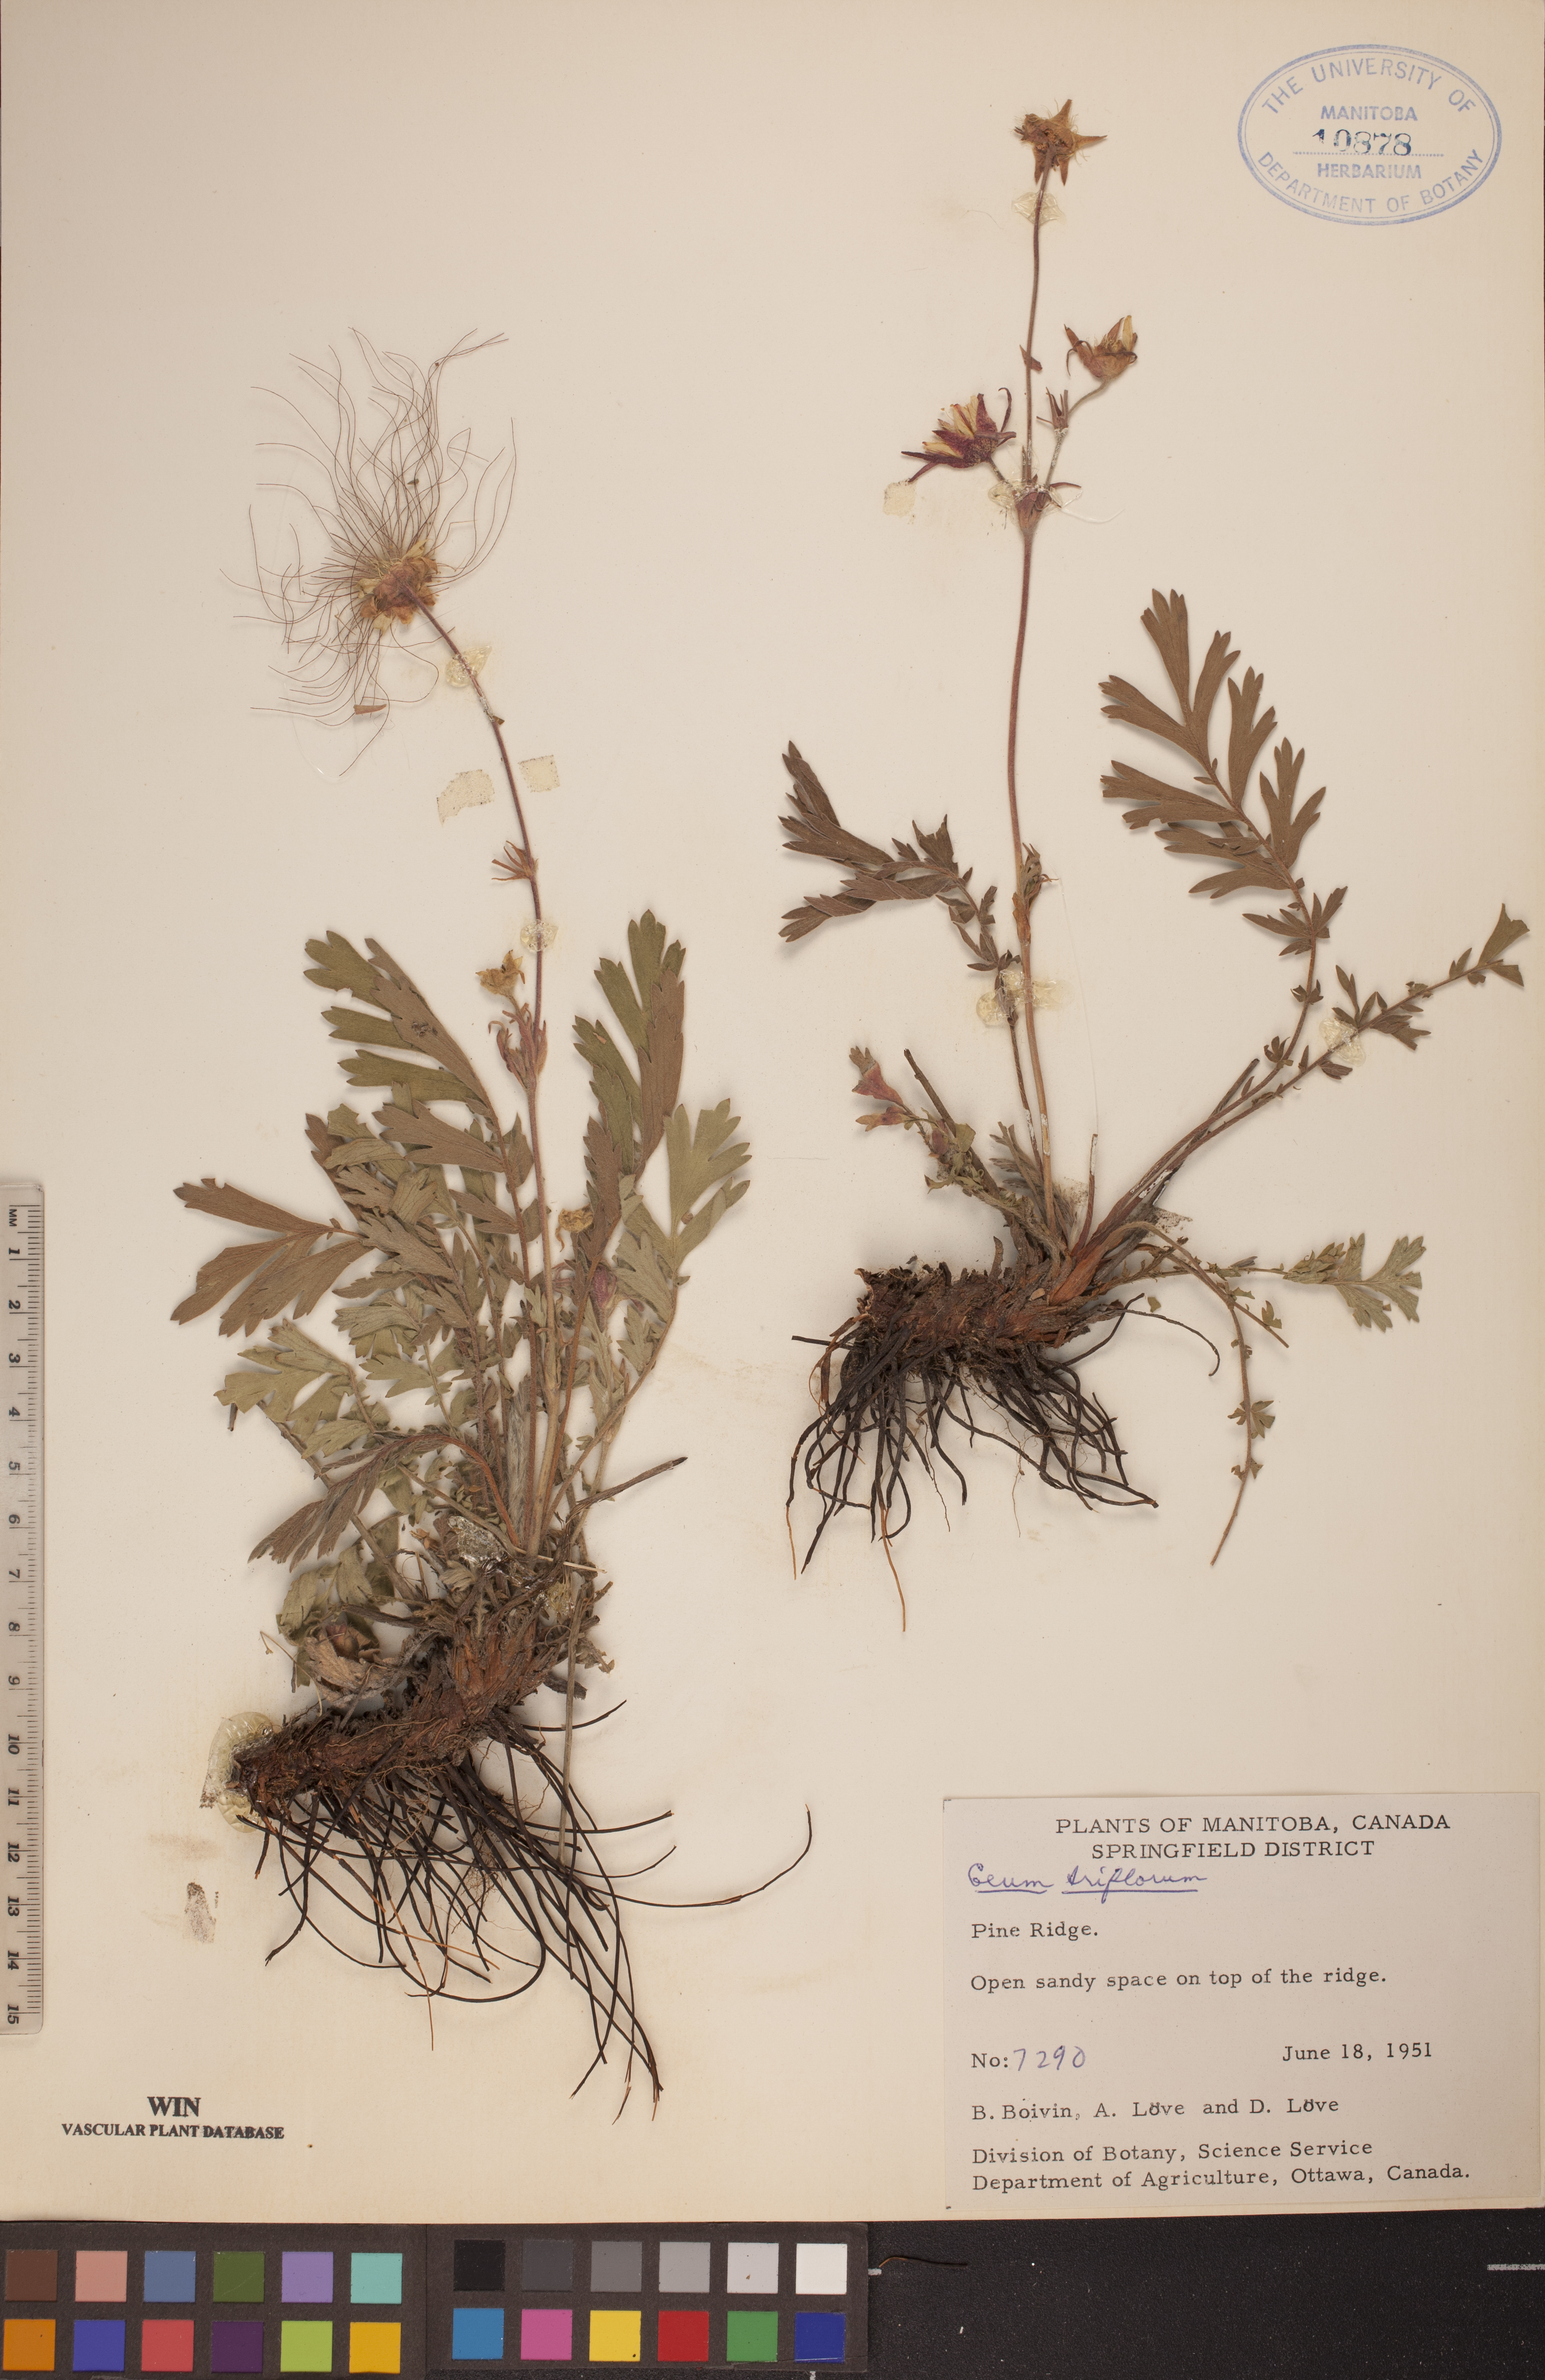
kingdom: Plantae
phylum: Tracheophyta
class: Magnoliopsida
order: Rosales
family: Rosaceae
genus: Geum
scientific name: Geum triflorum
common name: Old man's whiskers
